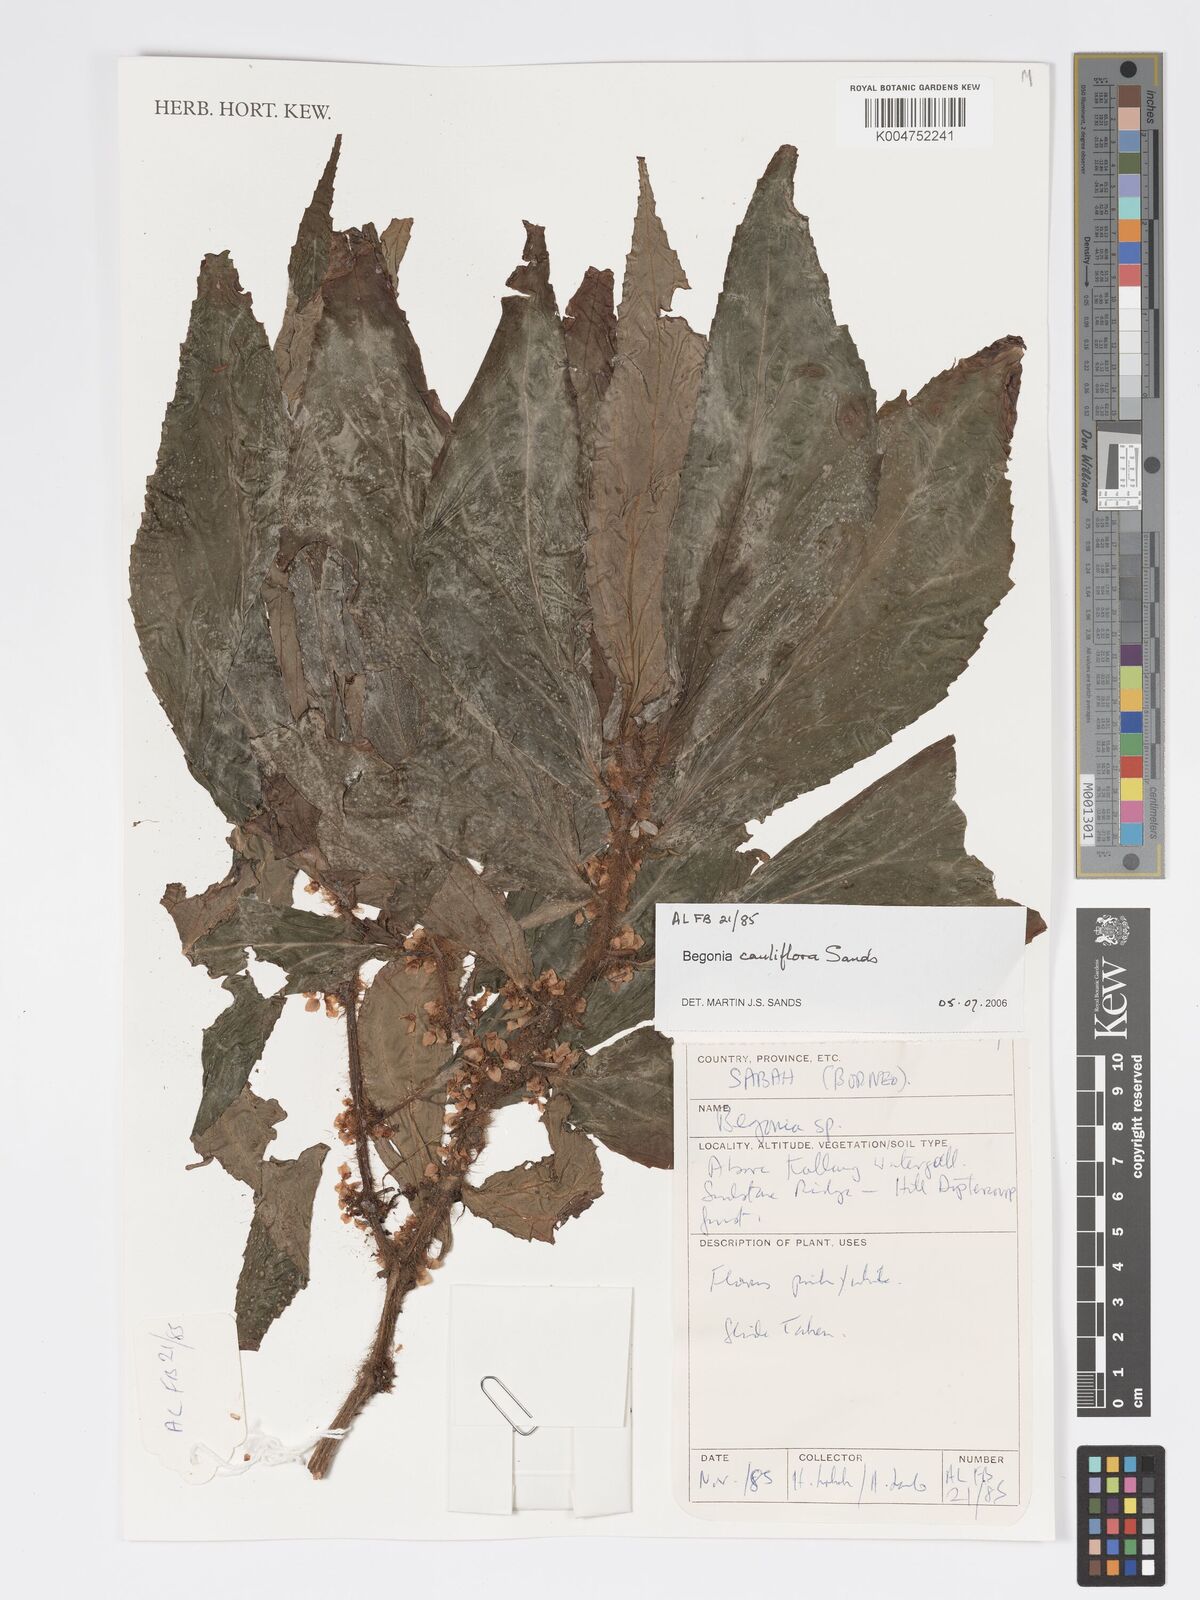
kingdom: Plantae
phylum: Tracheophyta
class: Magnoliopsida
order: Cucurbitales
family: Begoniaceae
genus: Begonia
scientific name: Begonia cauliflora
